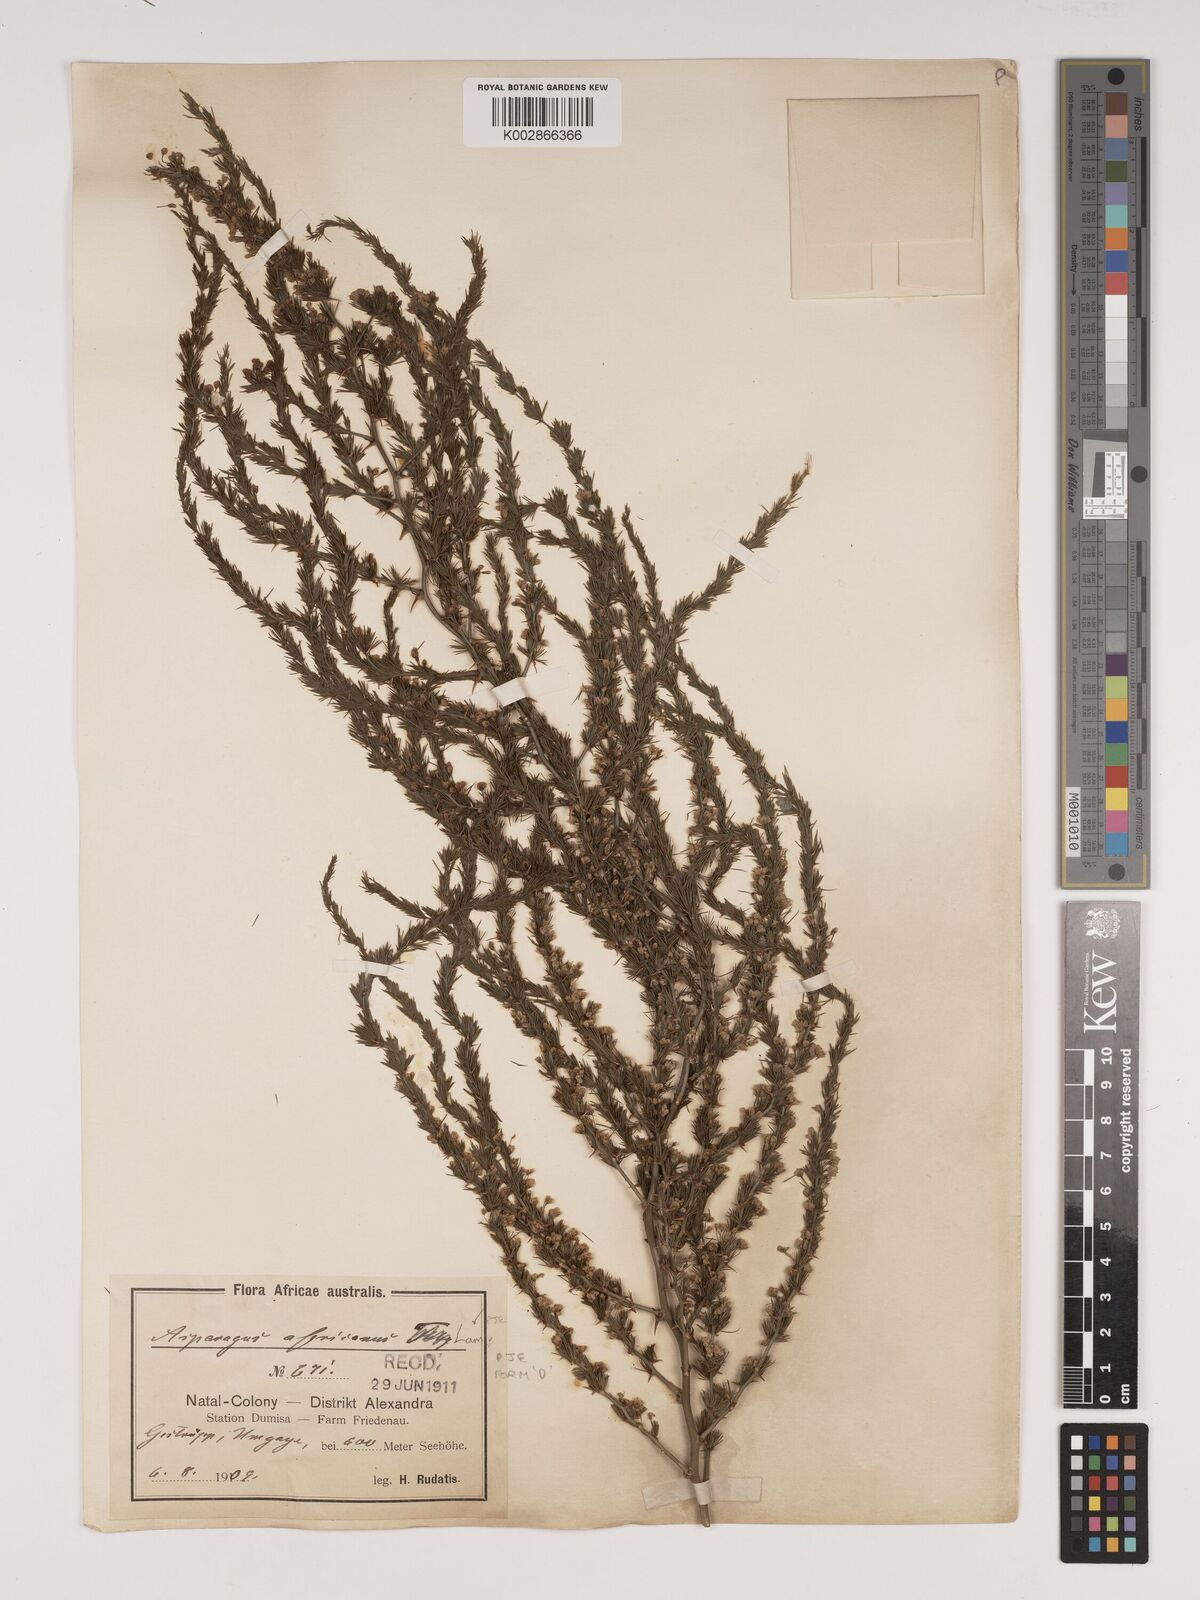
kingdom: Plantae
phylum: Tracheophyta
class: Liliopsida
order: Asparagales
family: Asparagaceae
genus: Asparagus
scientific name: Asparagus africanus
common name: Asparagus-fern
